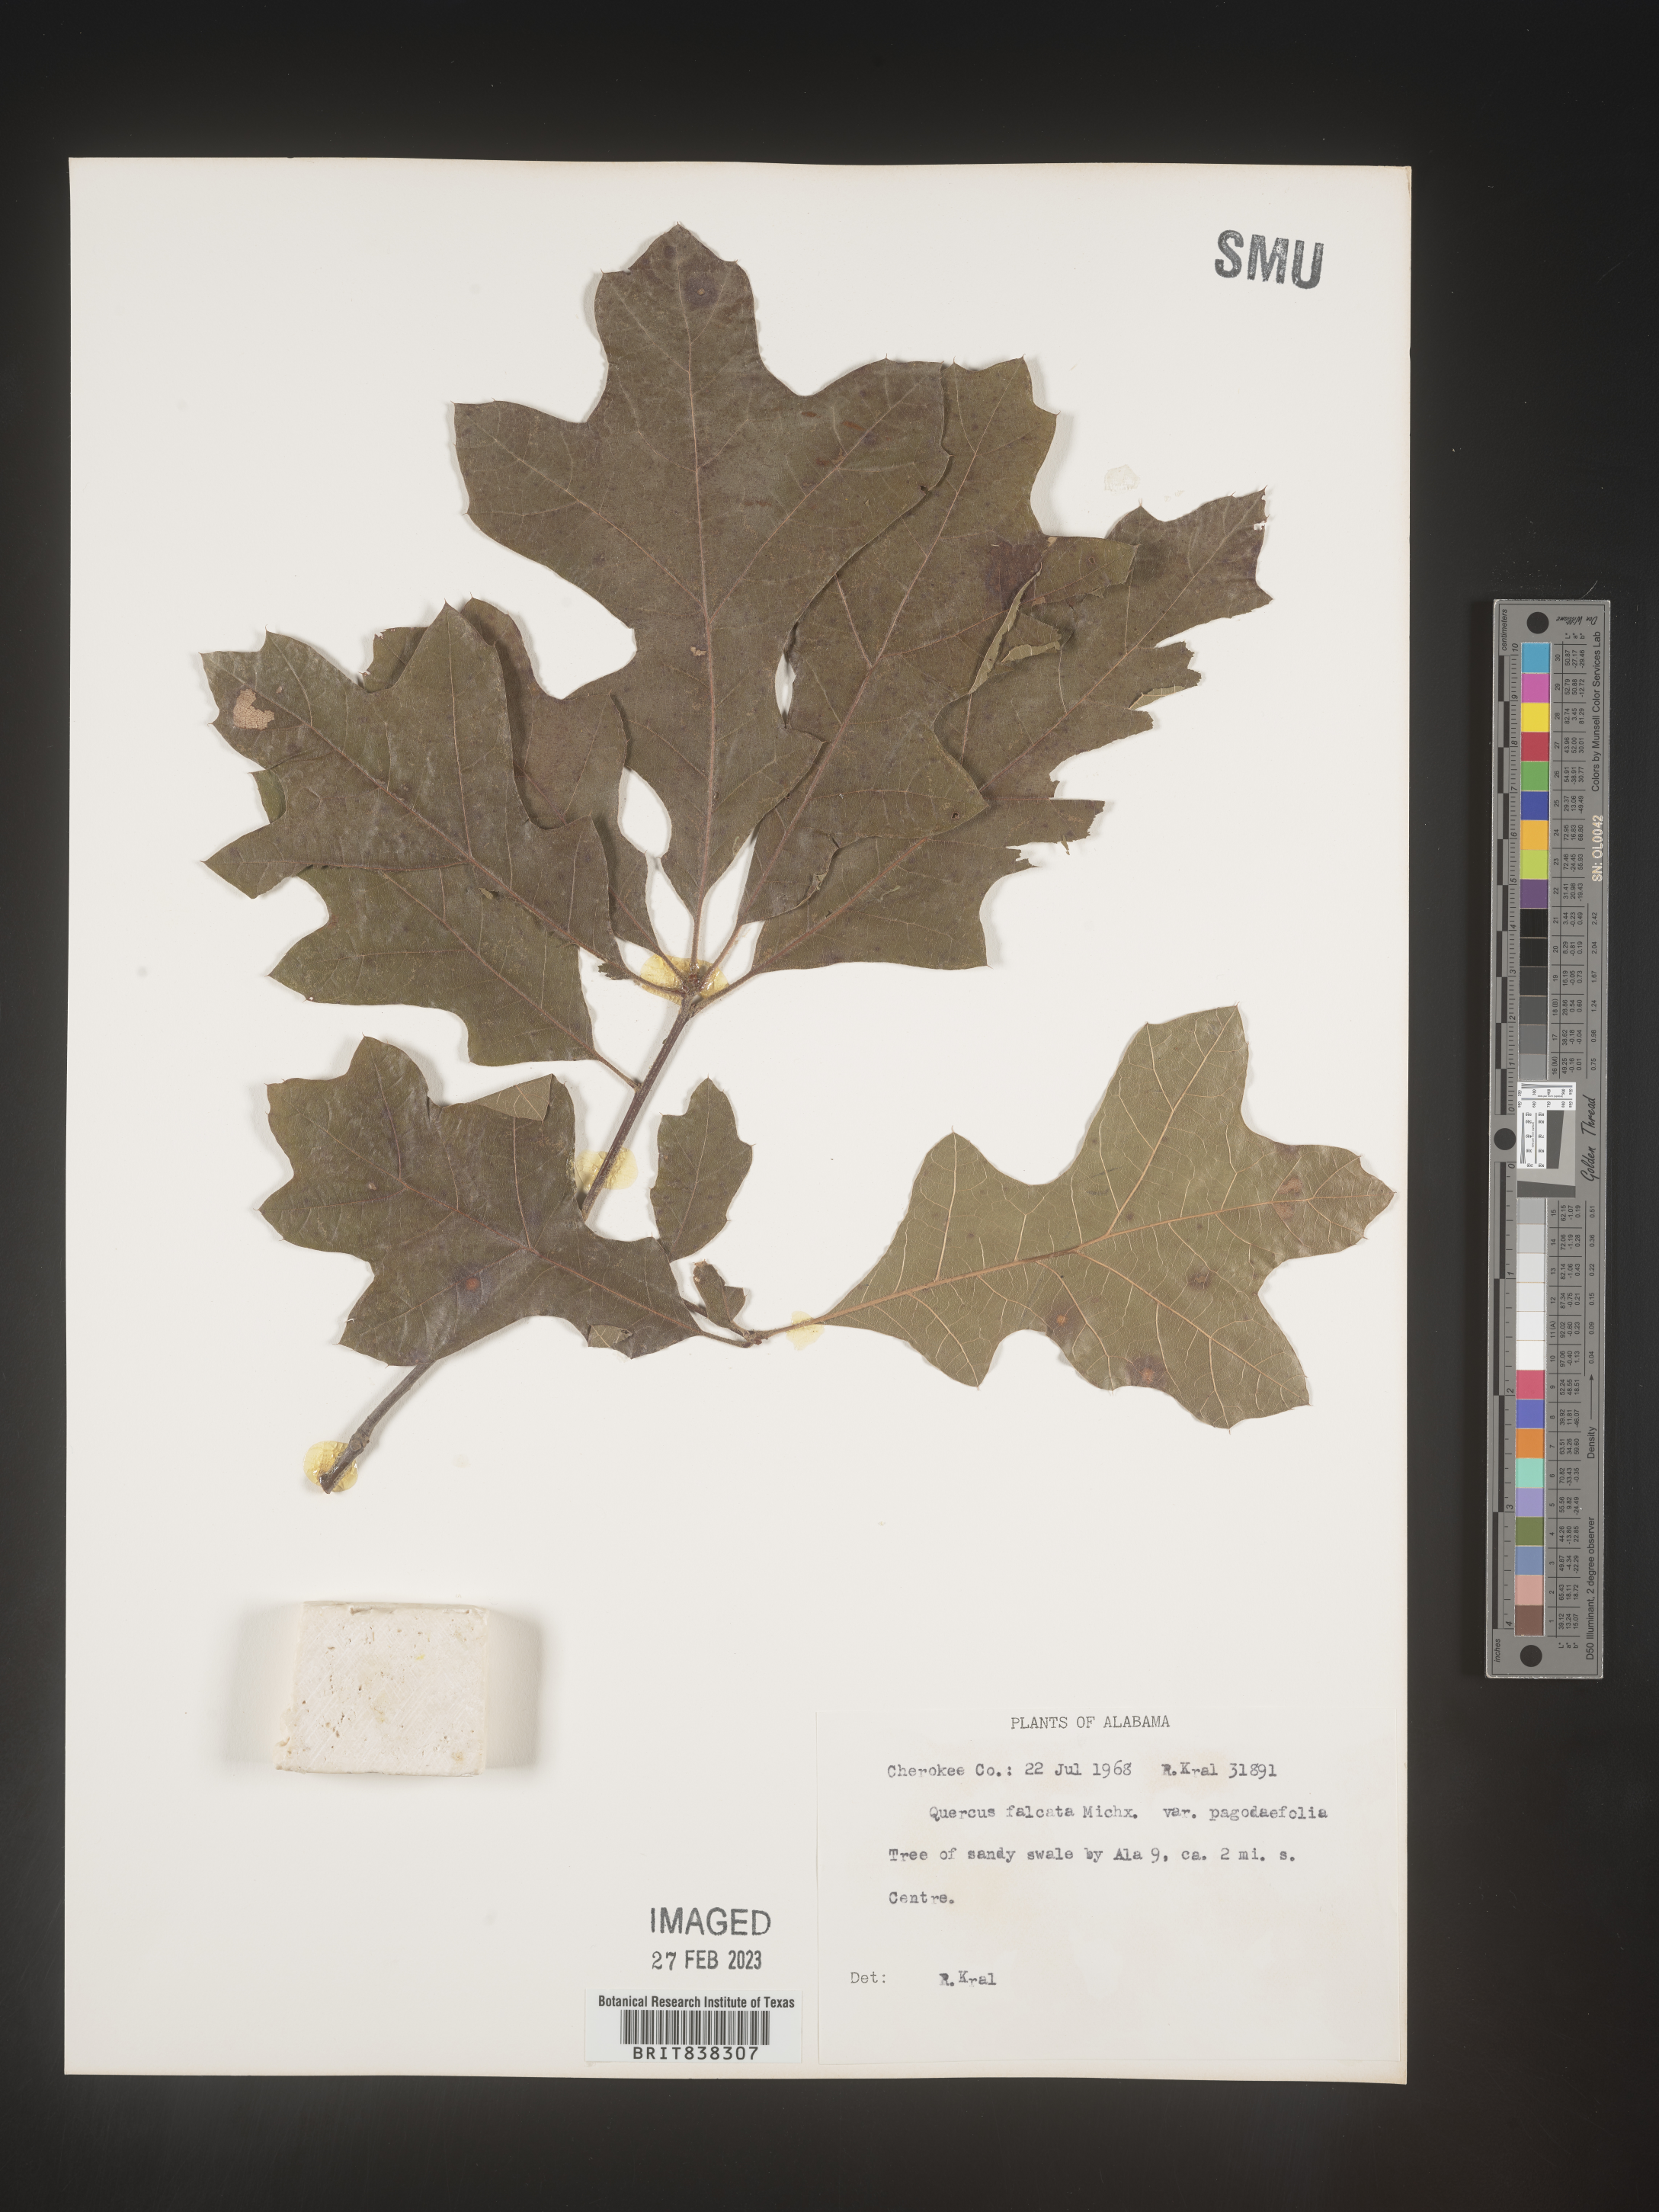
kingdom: Plantae
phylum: Tracheophyta
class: Magnoliopsida
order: Fagales
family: Fagaceae
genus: Quercus
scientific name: Quercus falcata
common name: Southern red oak
